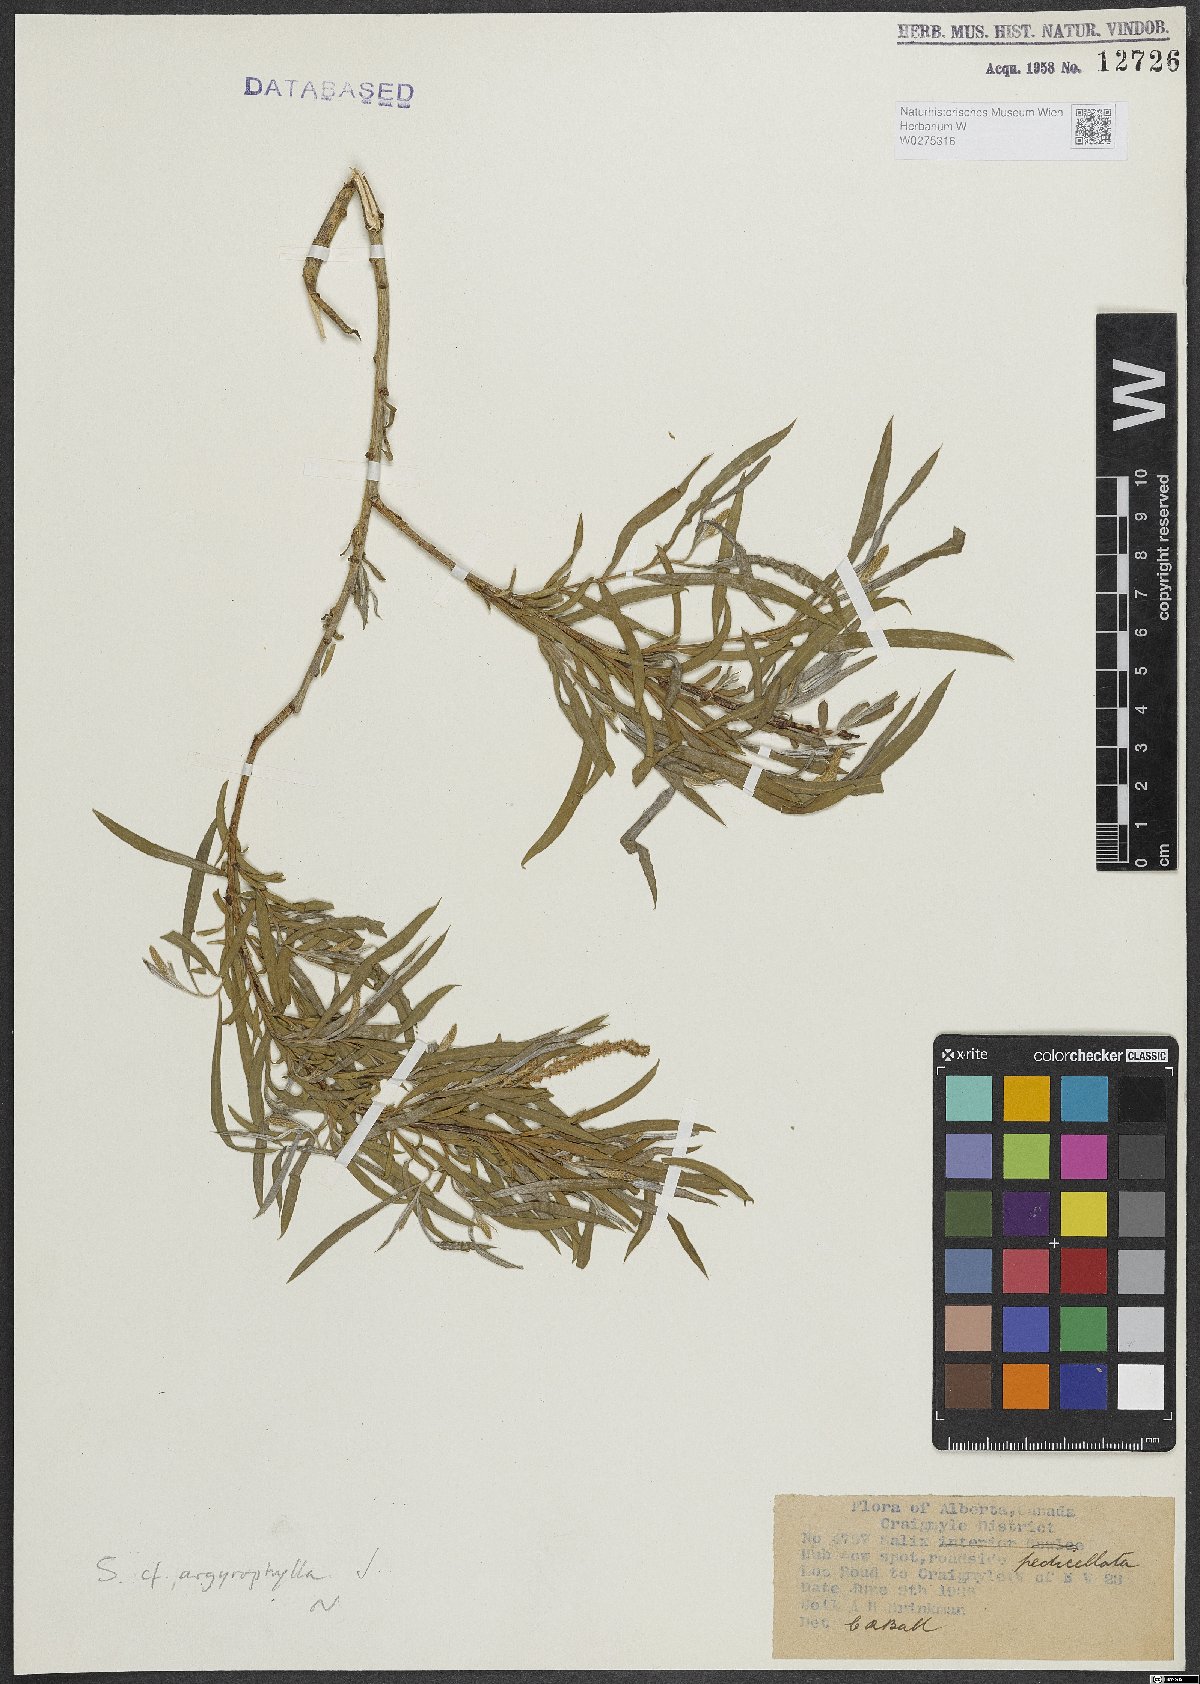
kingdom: Plantae
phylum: Tracheophyta
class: Magnoliopsida
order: Malpighiales
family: Salicaceae
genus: Salix
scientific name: Salix pantosericea
